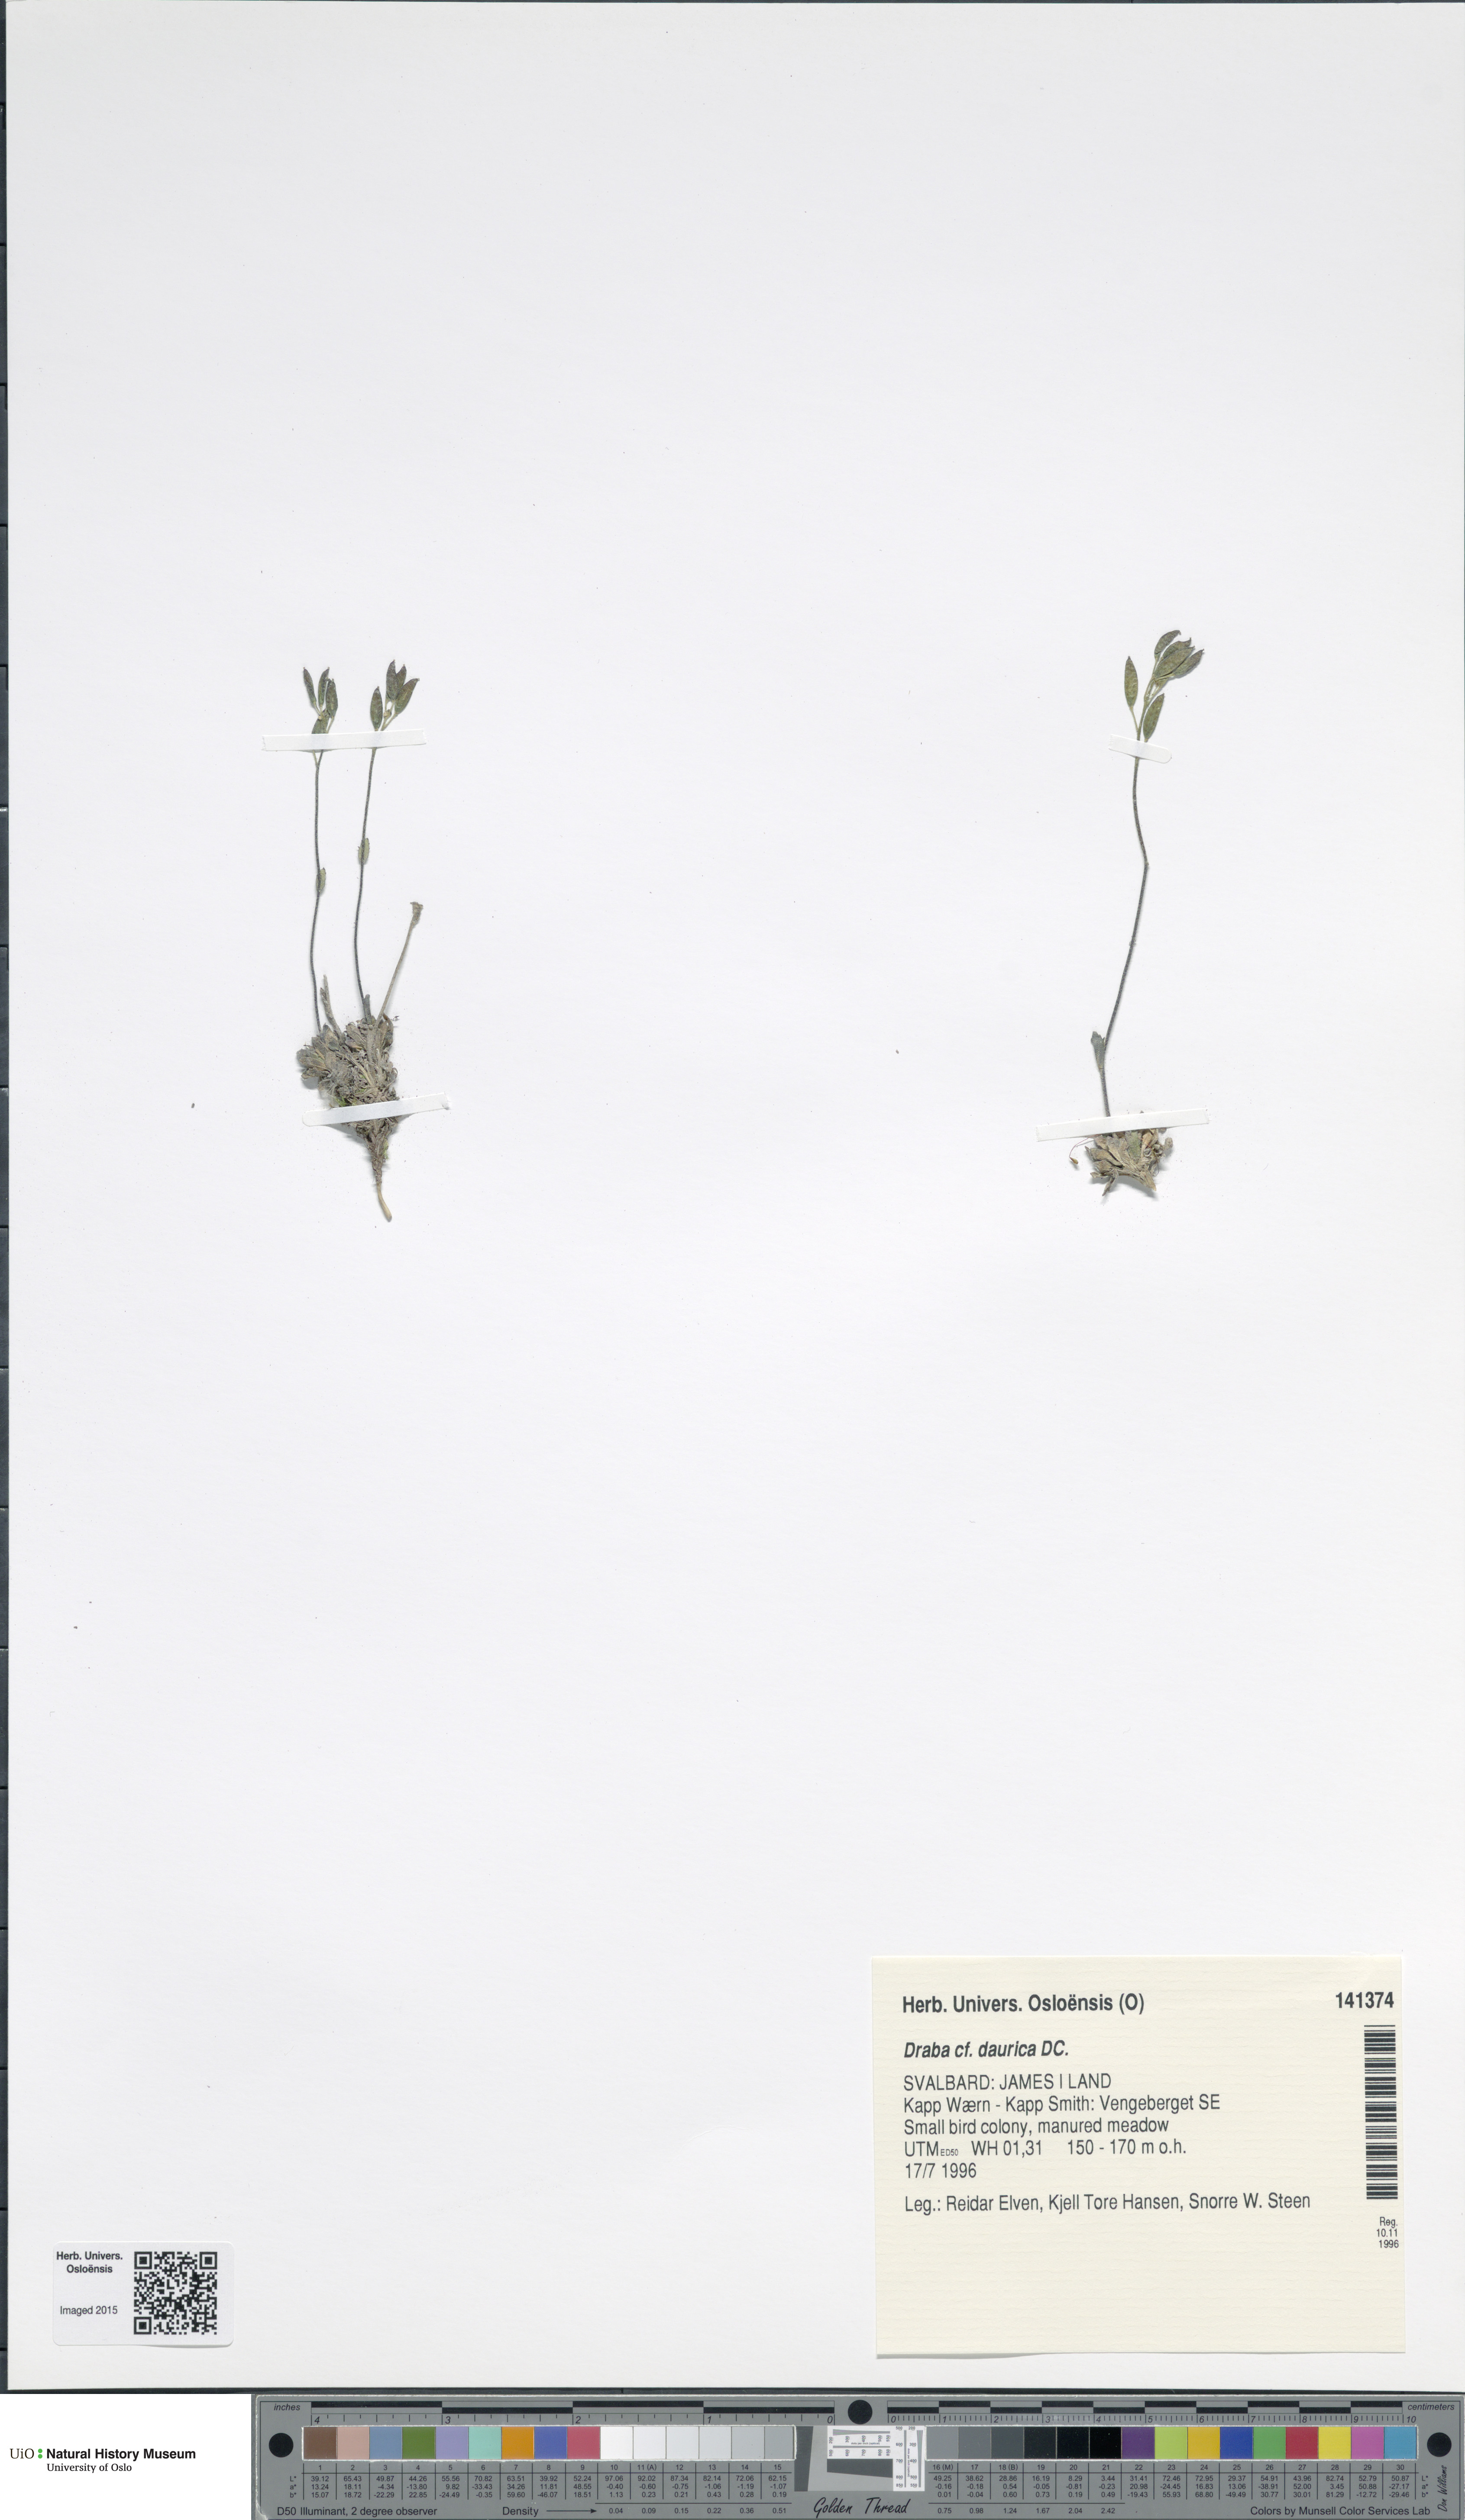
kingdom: Plantae
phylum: Tracheophyta
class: Magnoliopsida
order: Brassicales
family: Brassicaceae
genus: Draba
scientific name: Draba glabella
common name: Glaucous draba
